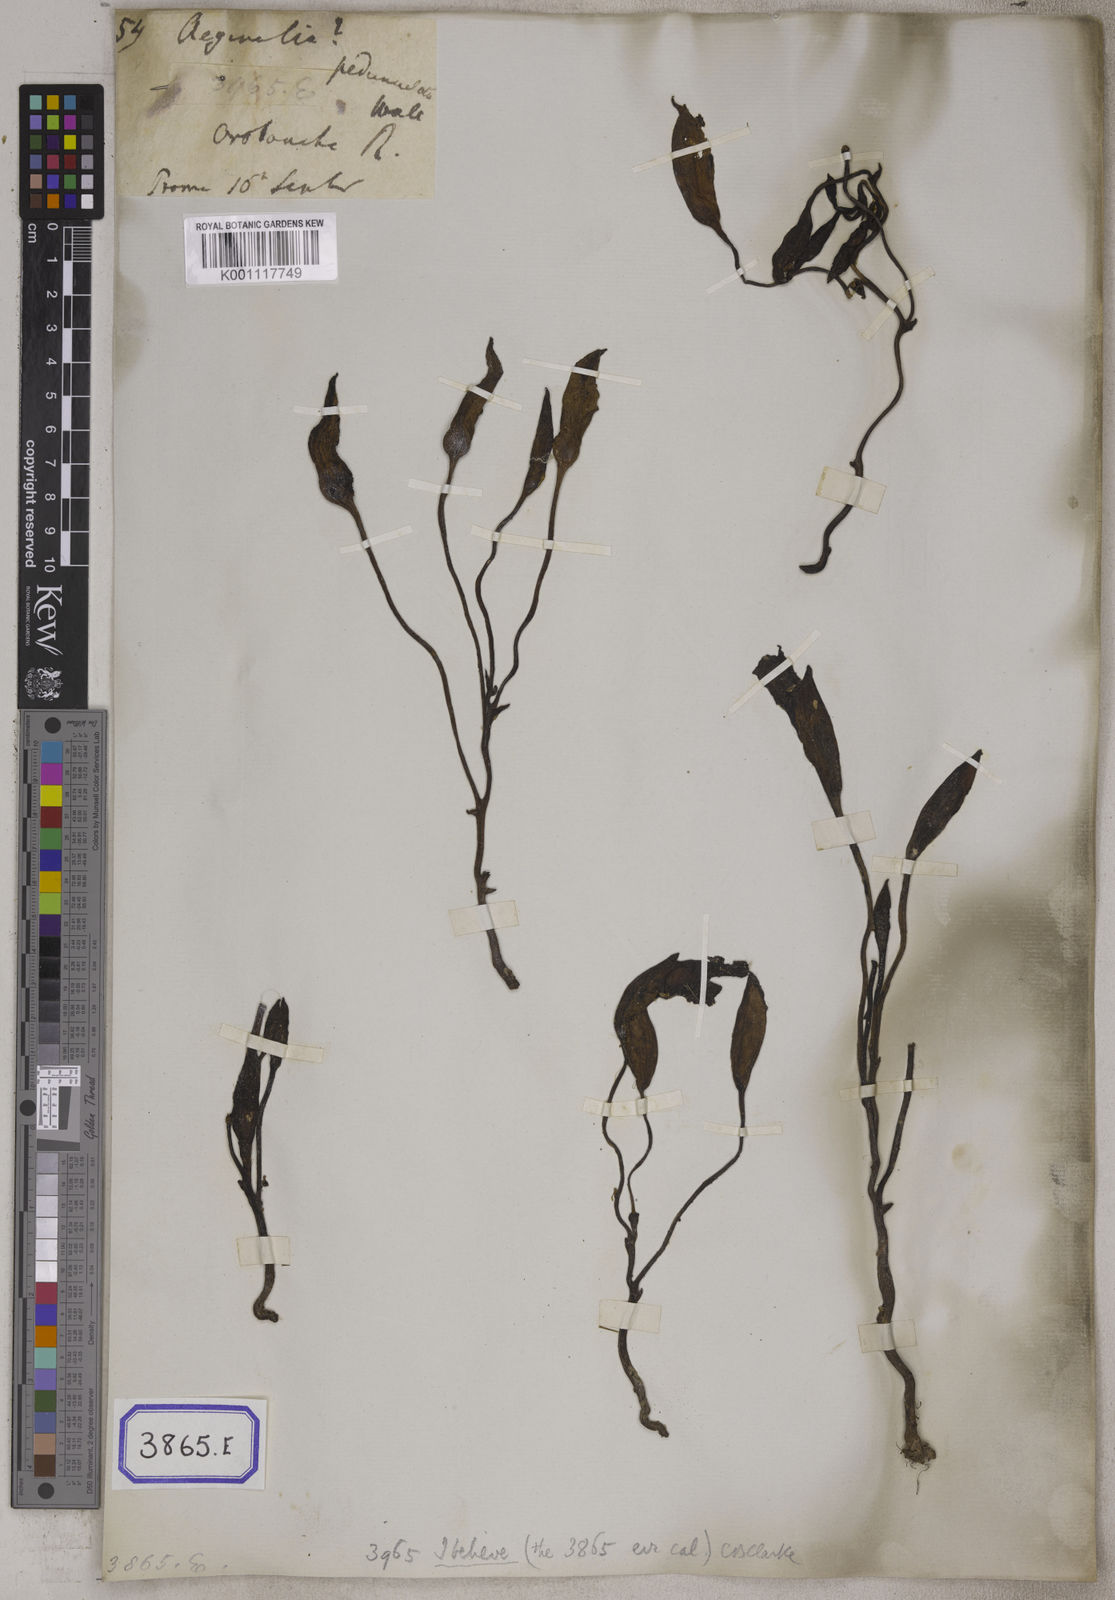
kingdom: Plantae
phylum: Tracheophyta
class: Magnoliopsida
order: Lamiales
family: Orobanchaceae
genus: Aeginetia
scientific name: Aeginetia indica
